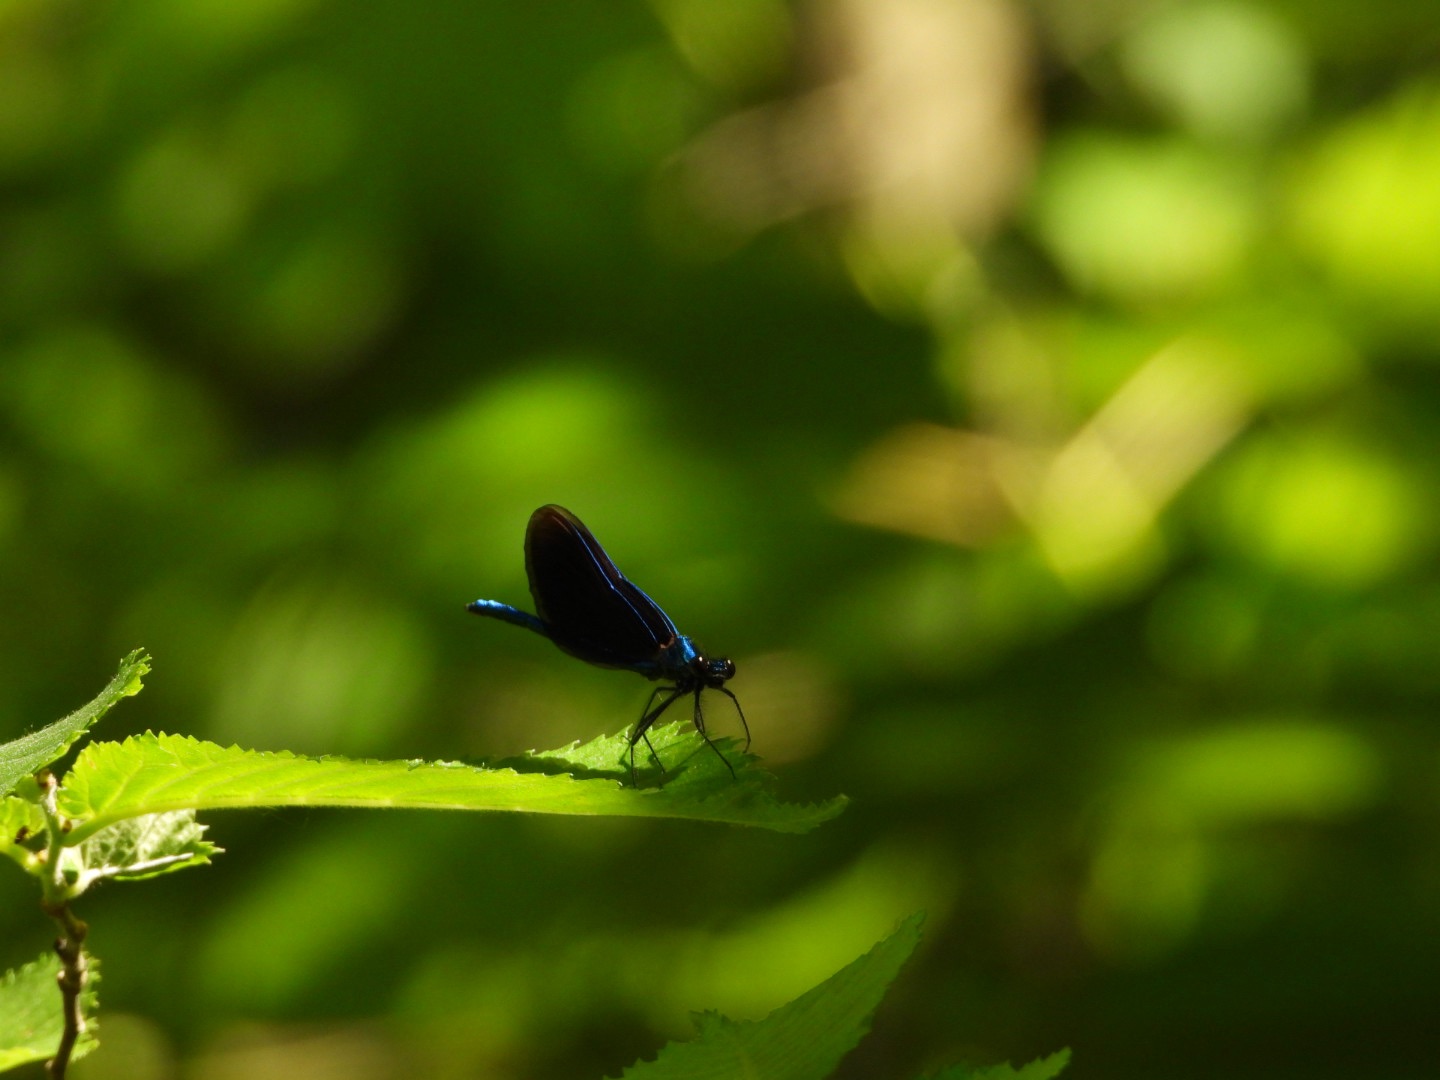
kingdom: Animalia
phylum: Arthropoda
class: Insecta
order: Odonata
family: Calopterygidae
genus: Calopteryx
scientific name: Calopteryx virgo
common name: Blåvinget pragtvandnymfe
